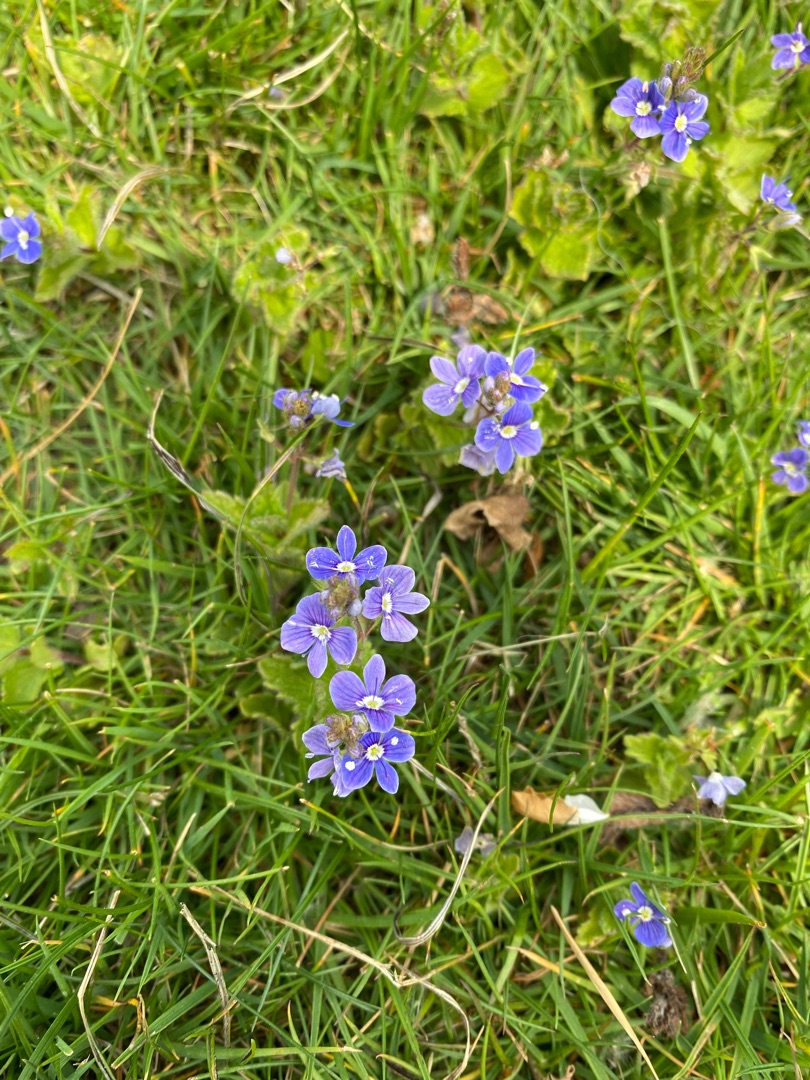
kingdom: Plantae
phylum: Tracheophyta
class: Magnoliopsida
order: Lamiales
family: Plantaginaceae
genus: Veronica
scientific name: Veronica chamaedrys
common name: Tveskægget ærenpris
